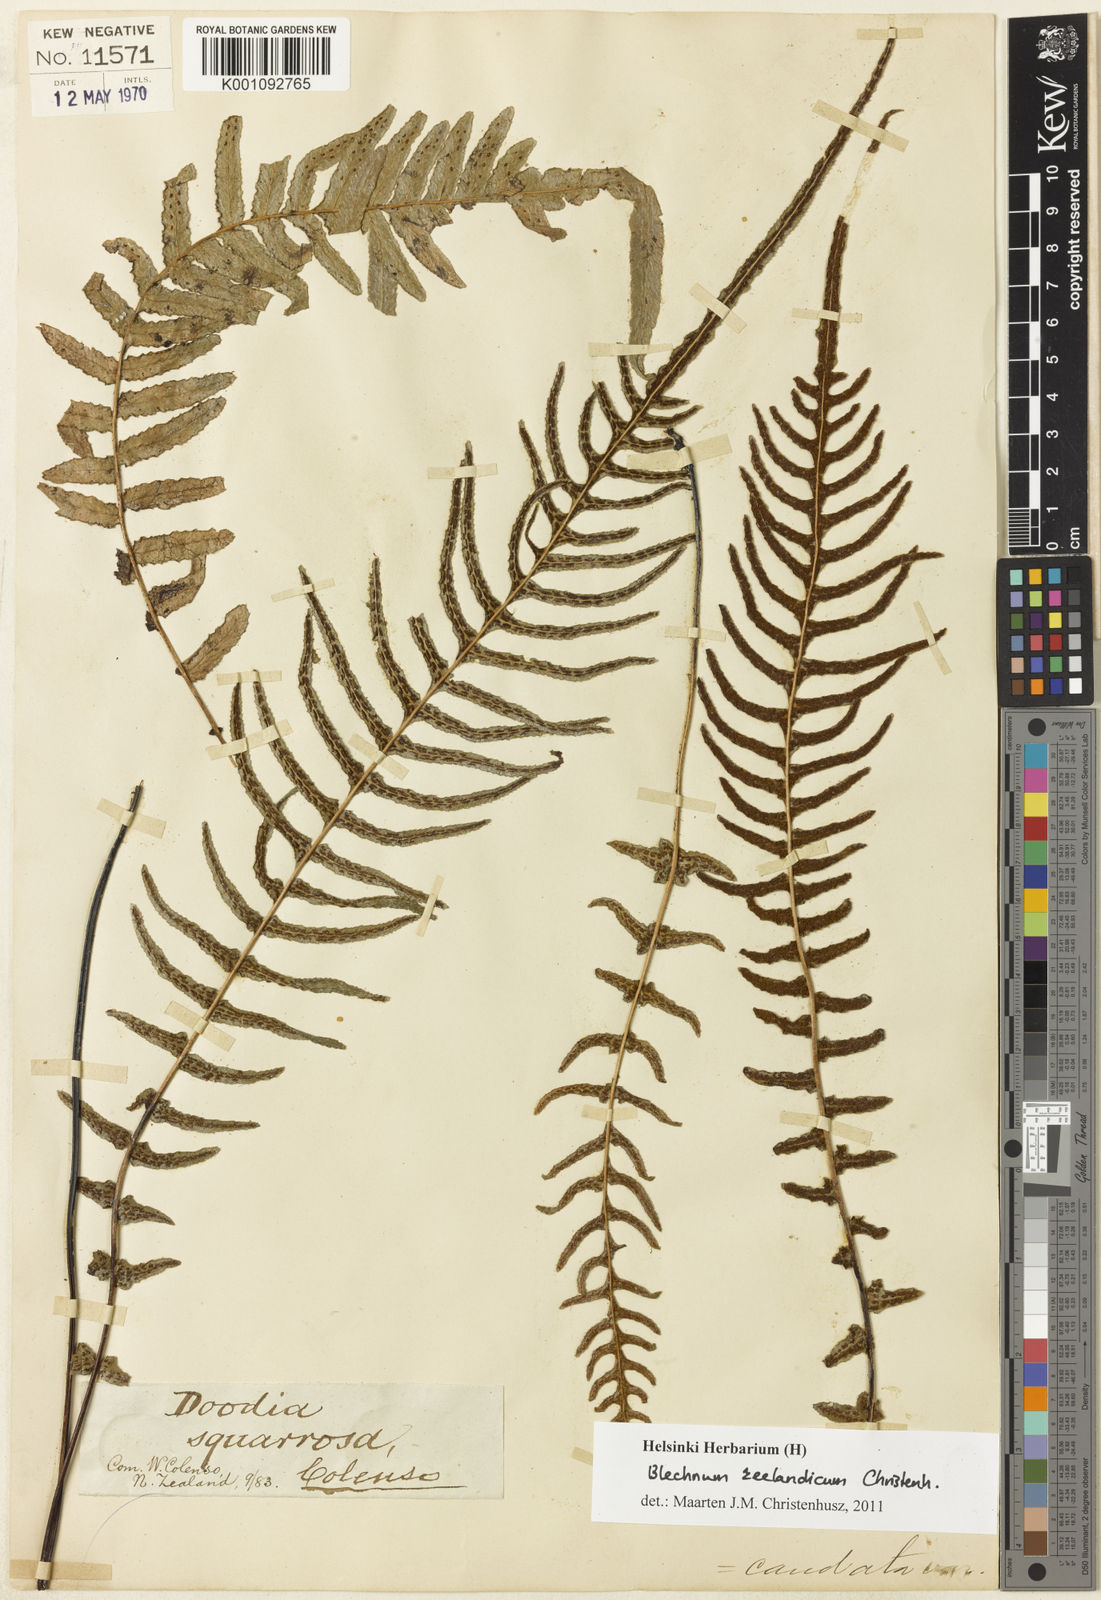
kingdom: Plantae
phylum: Tracheophyta
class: Polypodiopsida
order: Polypodiales
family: Blechnaceae
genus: Doodia
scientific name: Doodia
